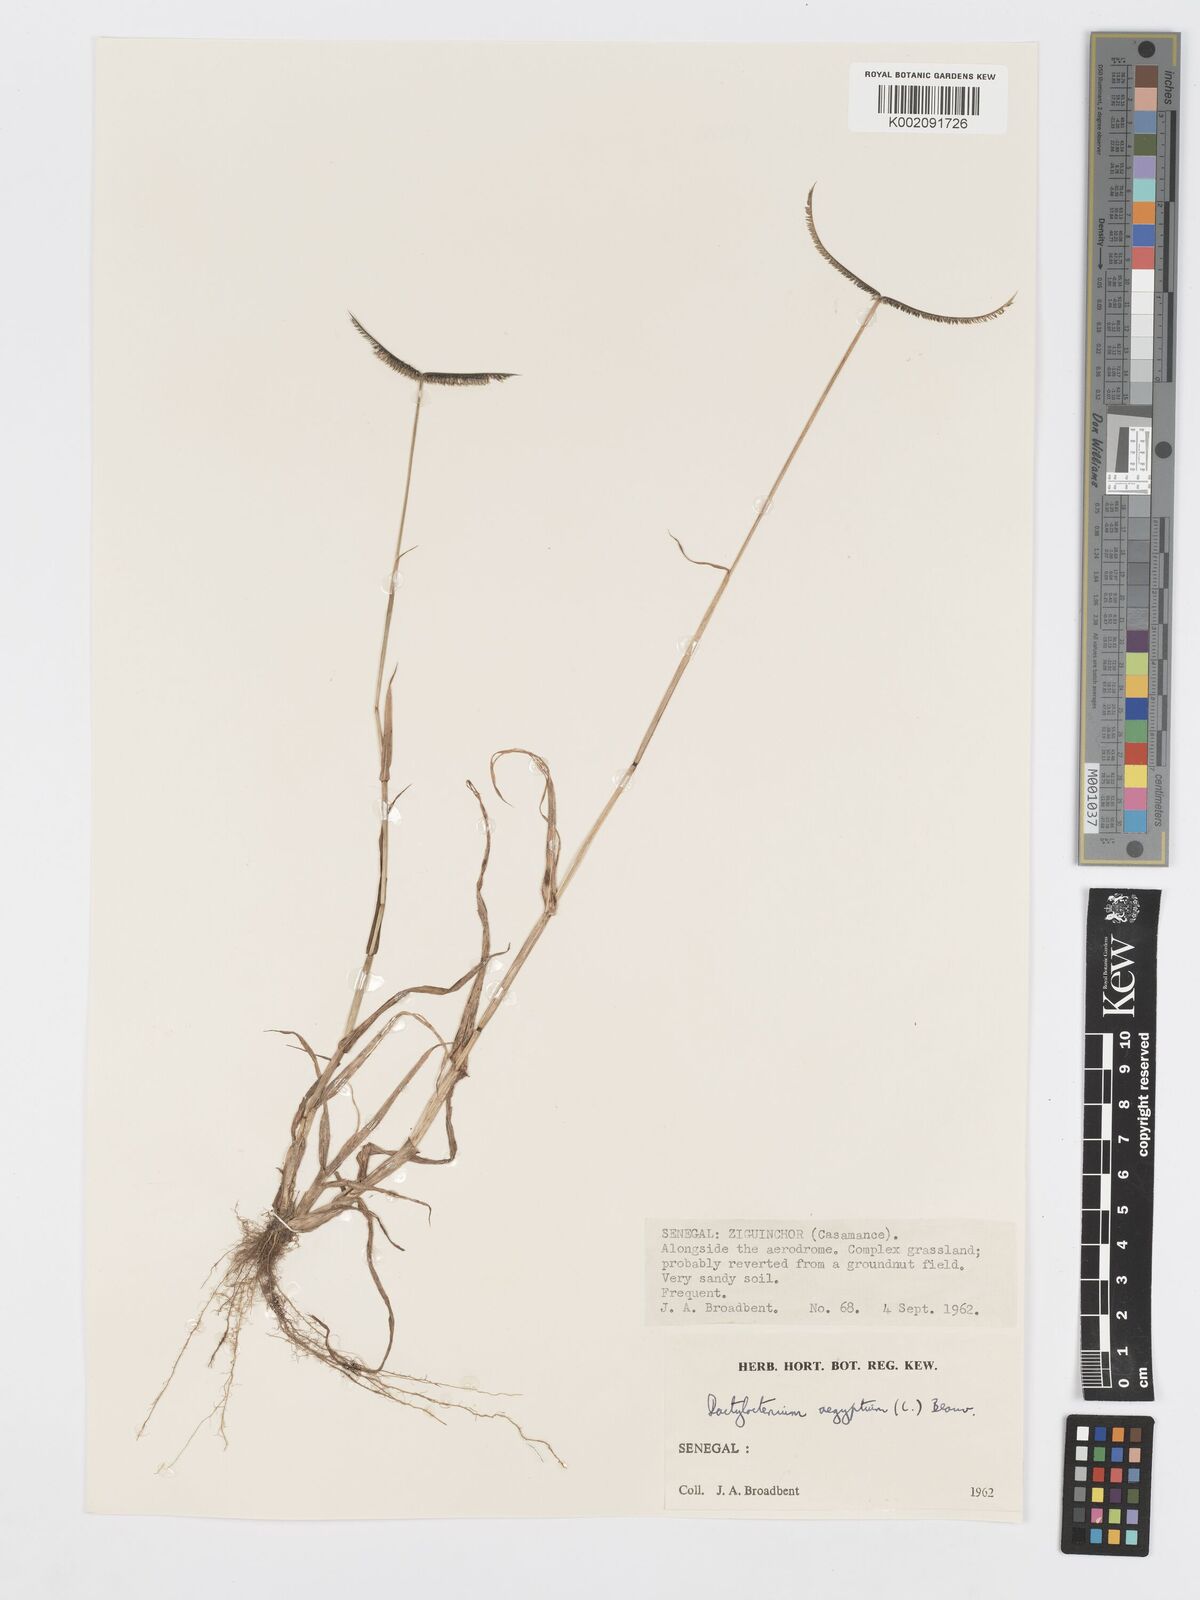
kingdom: Plantae
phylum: Tracheophyta
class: Liliopsida
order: Poales
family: Poaceae
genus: Dactyloctenium
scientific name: Dactyloctenium aegyptium
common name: Egyptian grass
